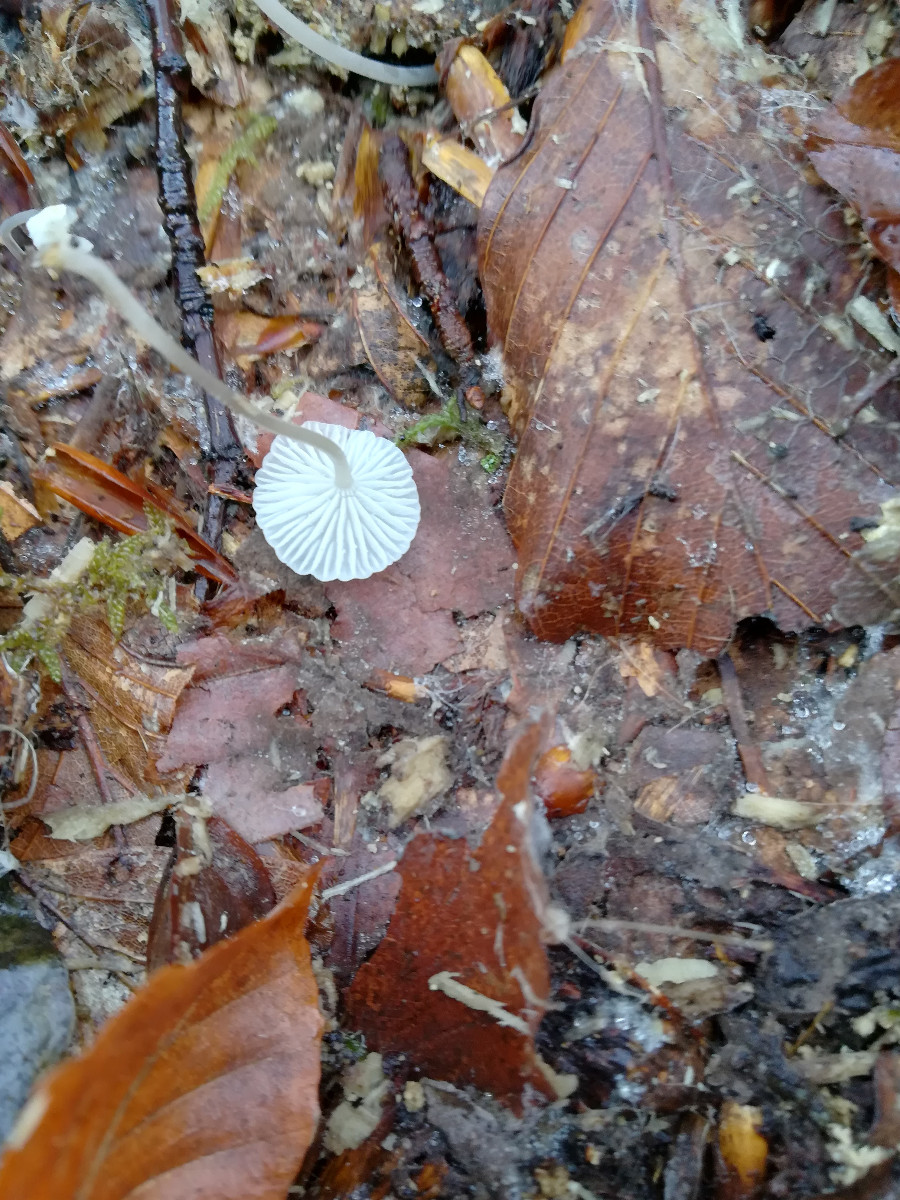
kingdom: Fungi
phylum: Basidiomycota
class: Agaricomycetes
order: Agaricales
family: Mycenaceae
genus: Mycena
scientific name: Mycena
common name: huesvamp
